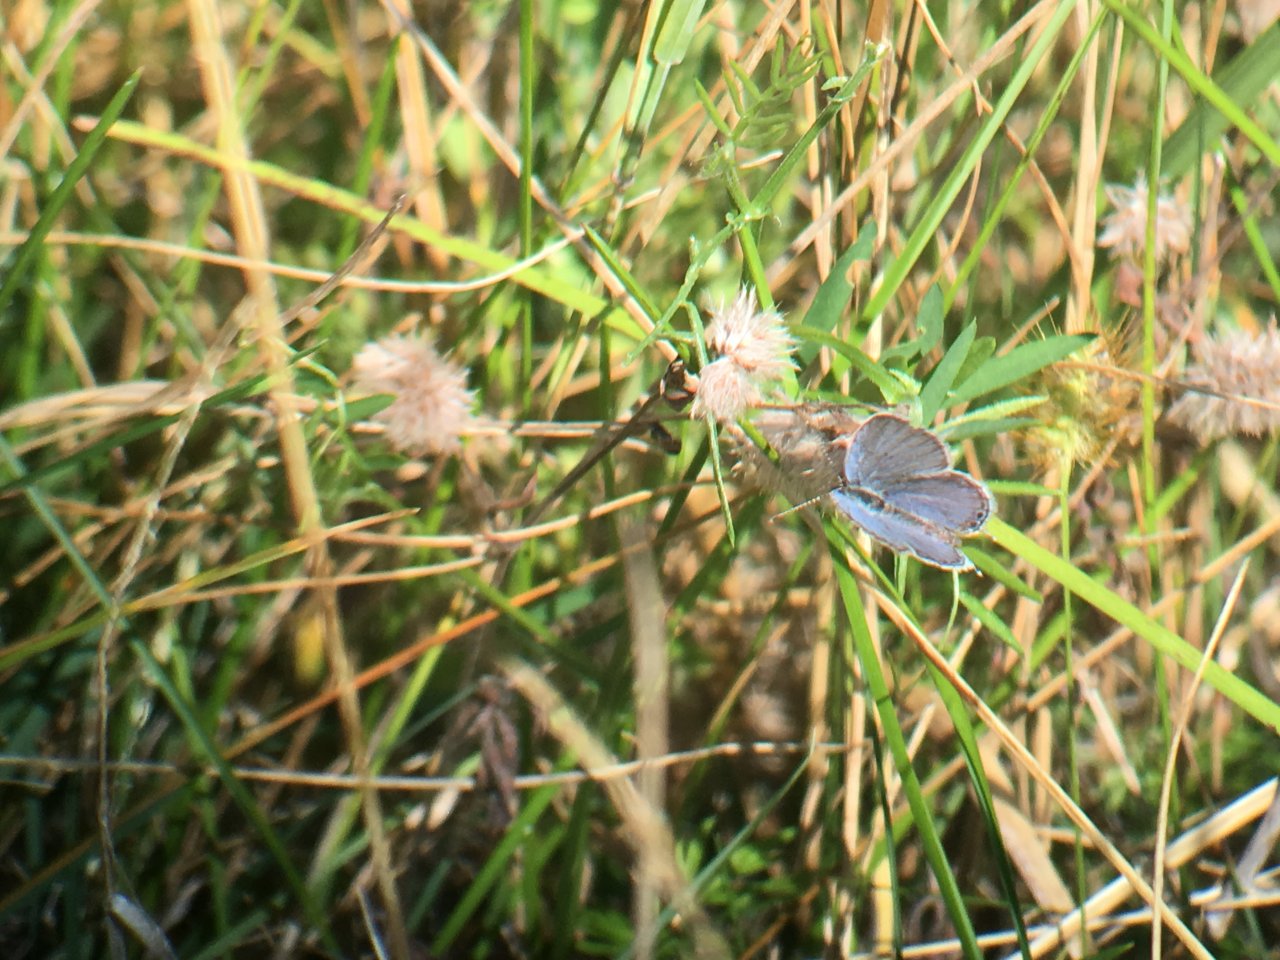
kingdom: Animalia
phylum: Arthropoda
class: Insecta
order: Lepidoptera
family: Lycaenidae
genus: Elkalyce
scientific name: Elkalyce comyntas
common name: Eastern Tailed-Blue
